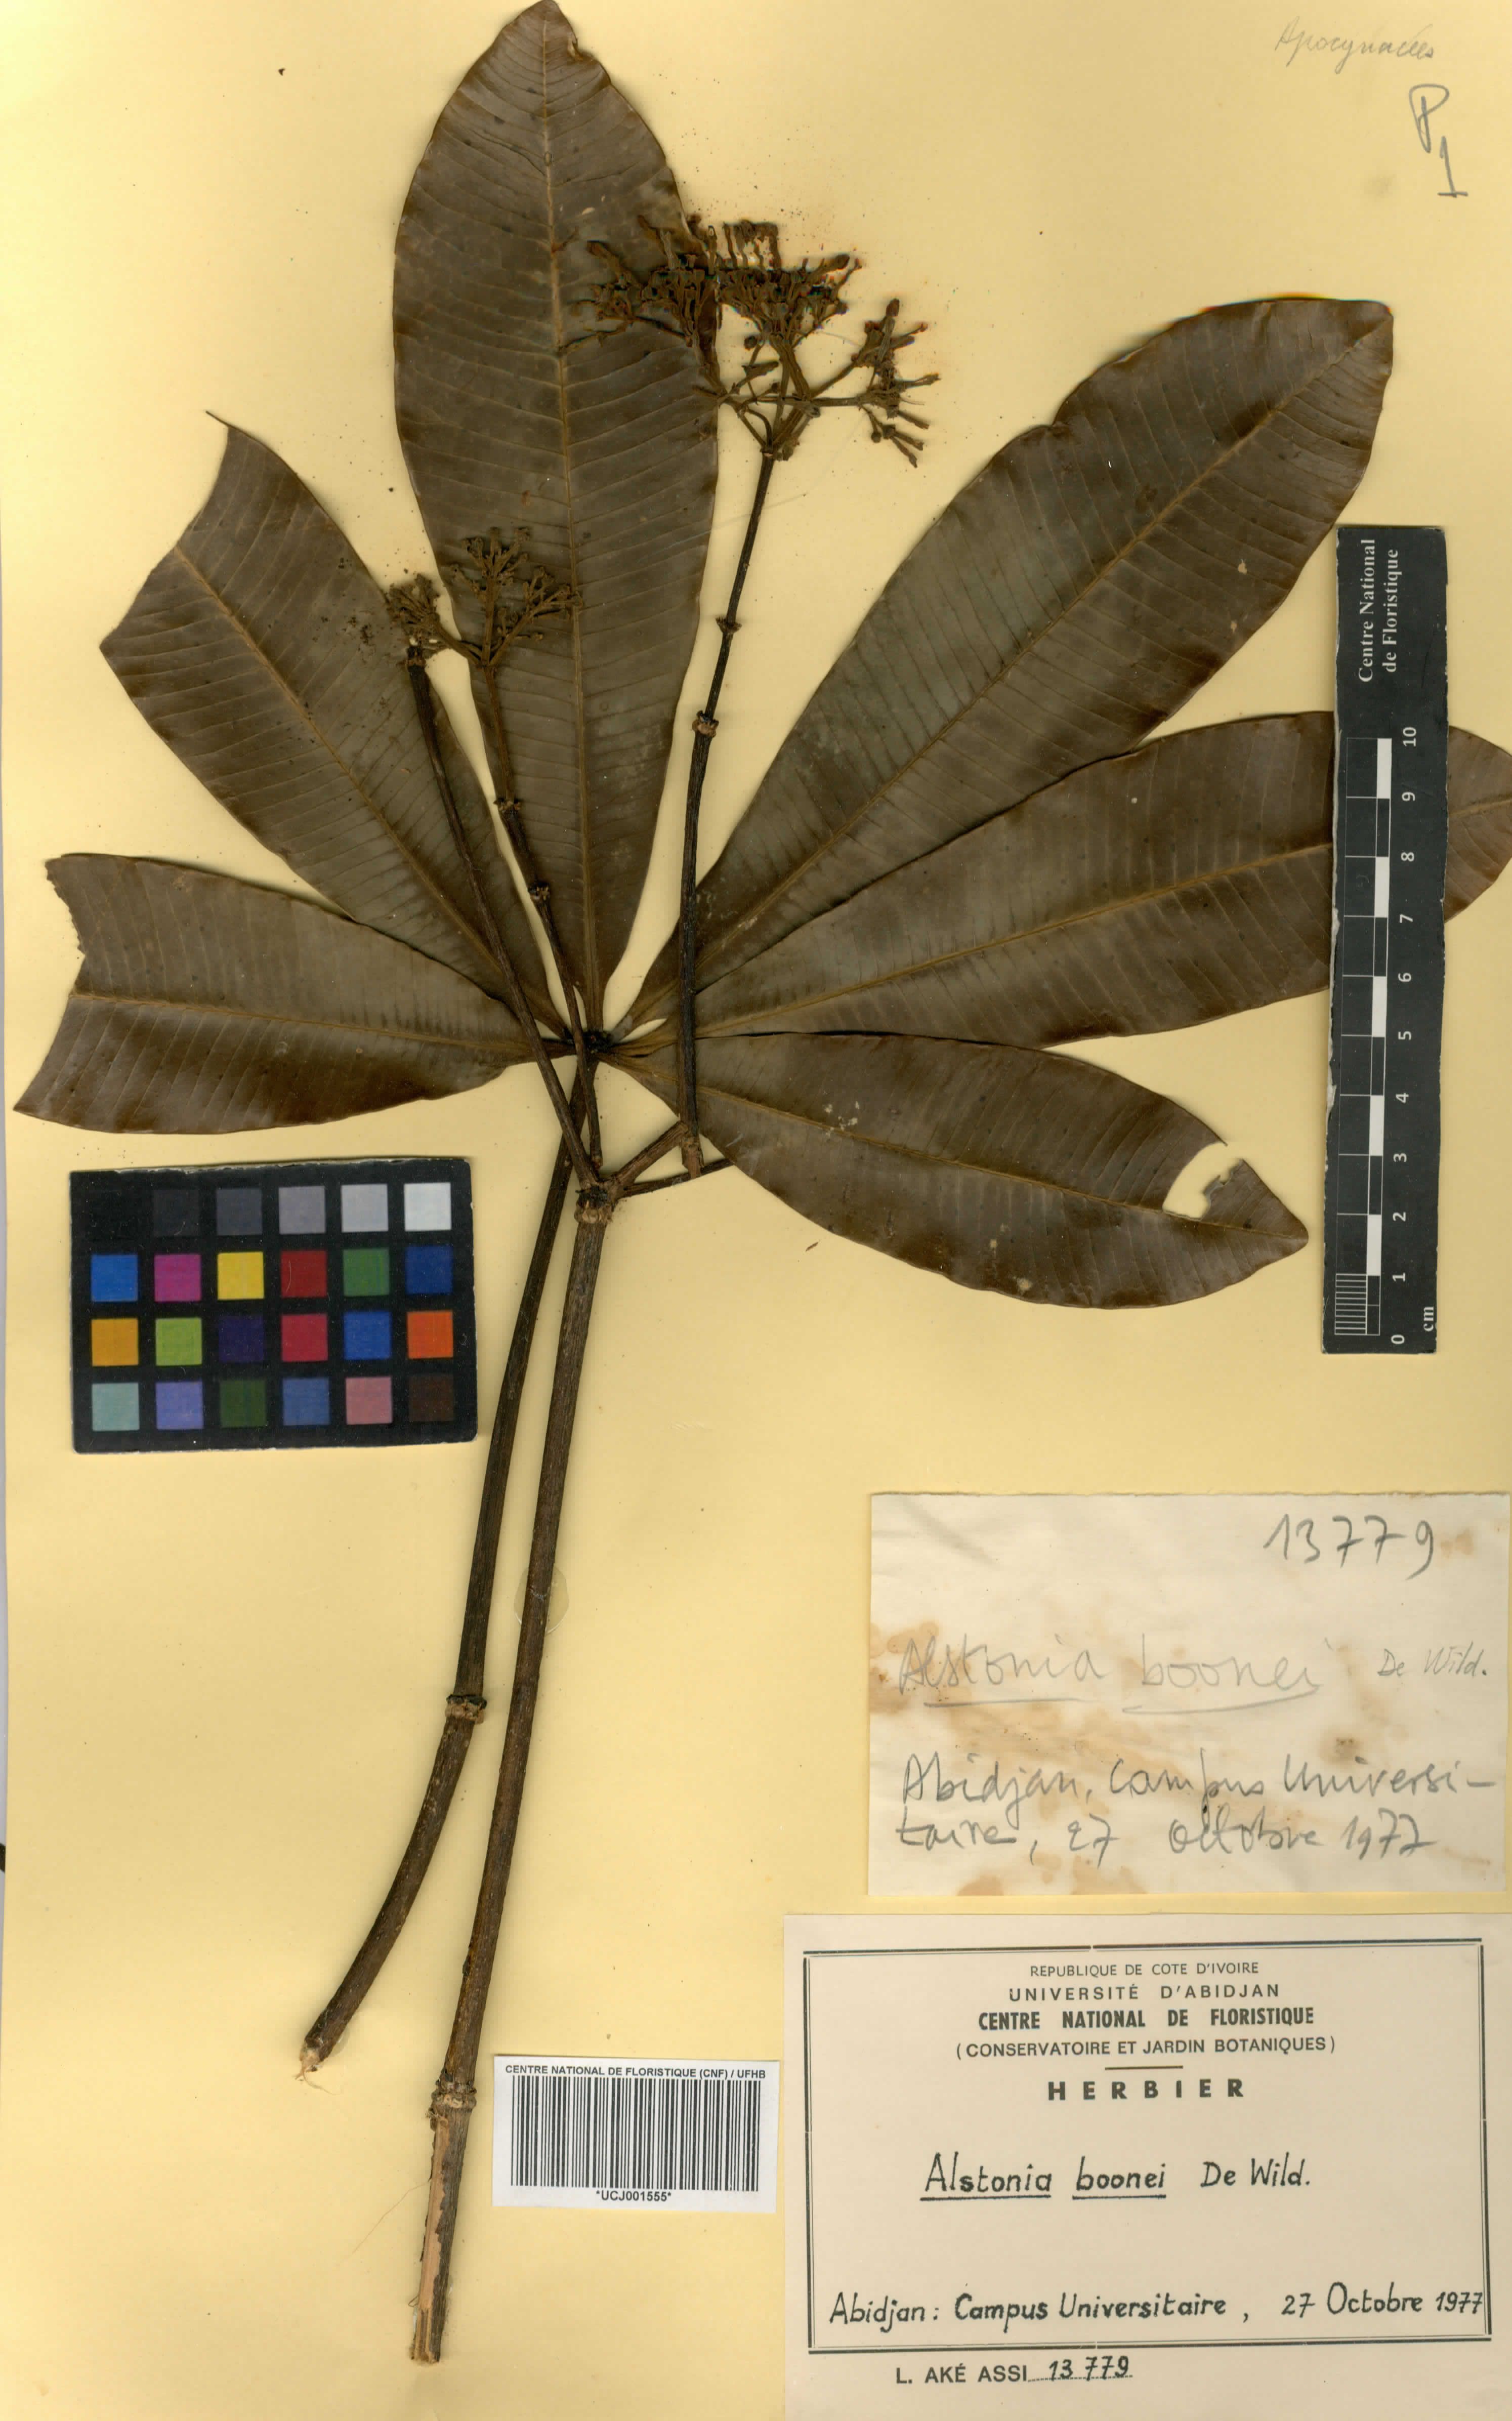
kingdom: Plantae
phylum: Tracheophyta
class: Magnoliopsida
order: Gentianales
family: Apocynaceae
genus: Alstonia
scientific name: Alstonia boonei
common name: Alstonia
